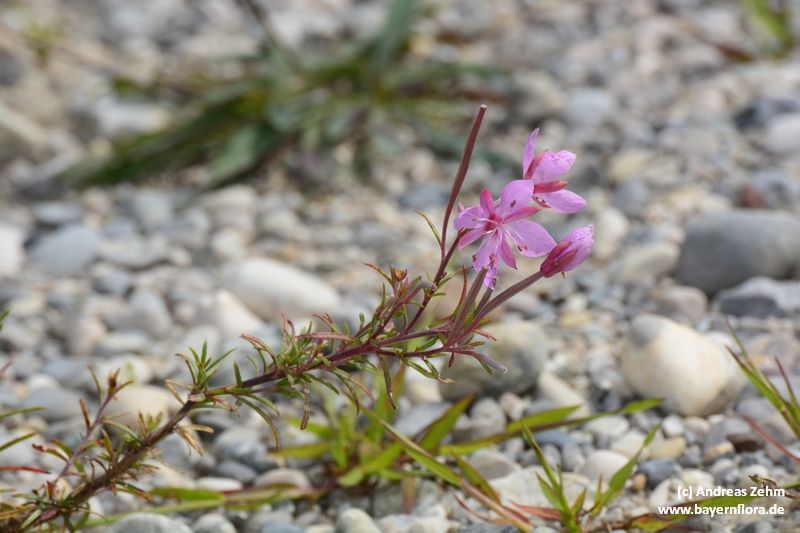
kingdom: Plantae
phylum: Tracheophyta
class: Magnoliopsida
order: Myrtales
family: Onagraceae
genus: Chamaenerion
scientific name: Chamaenerion dodonaei
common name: Rosemary-leaved willowherb
